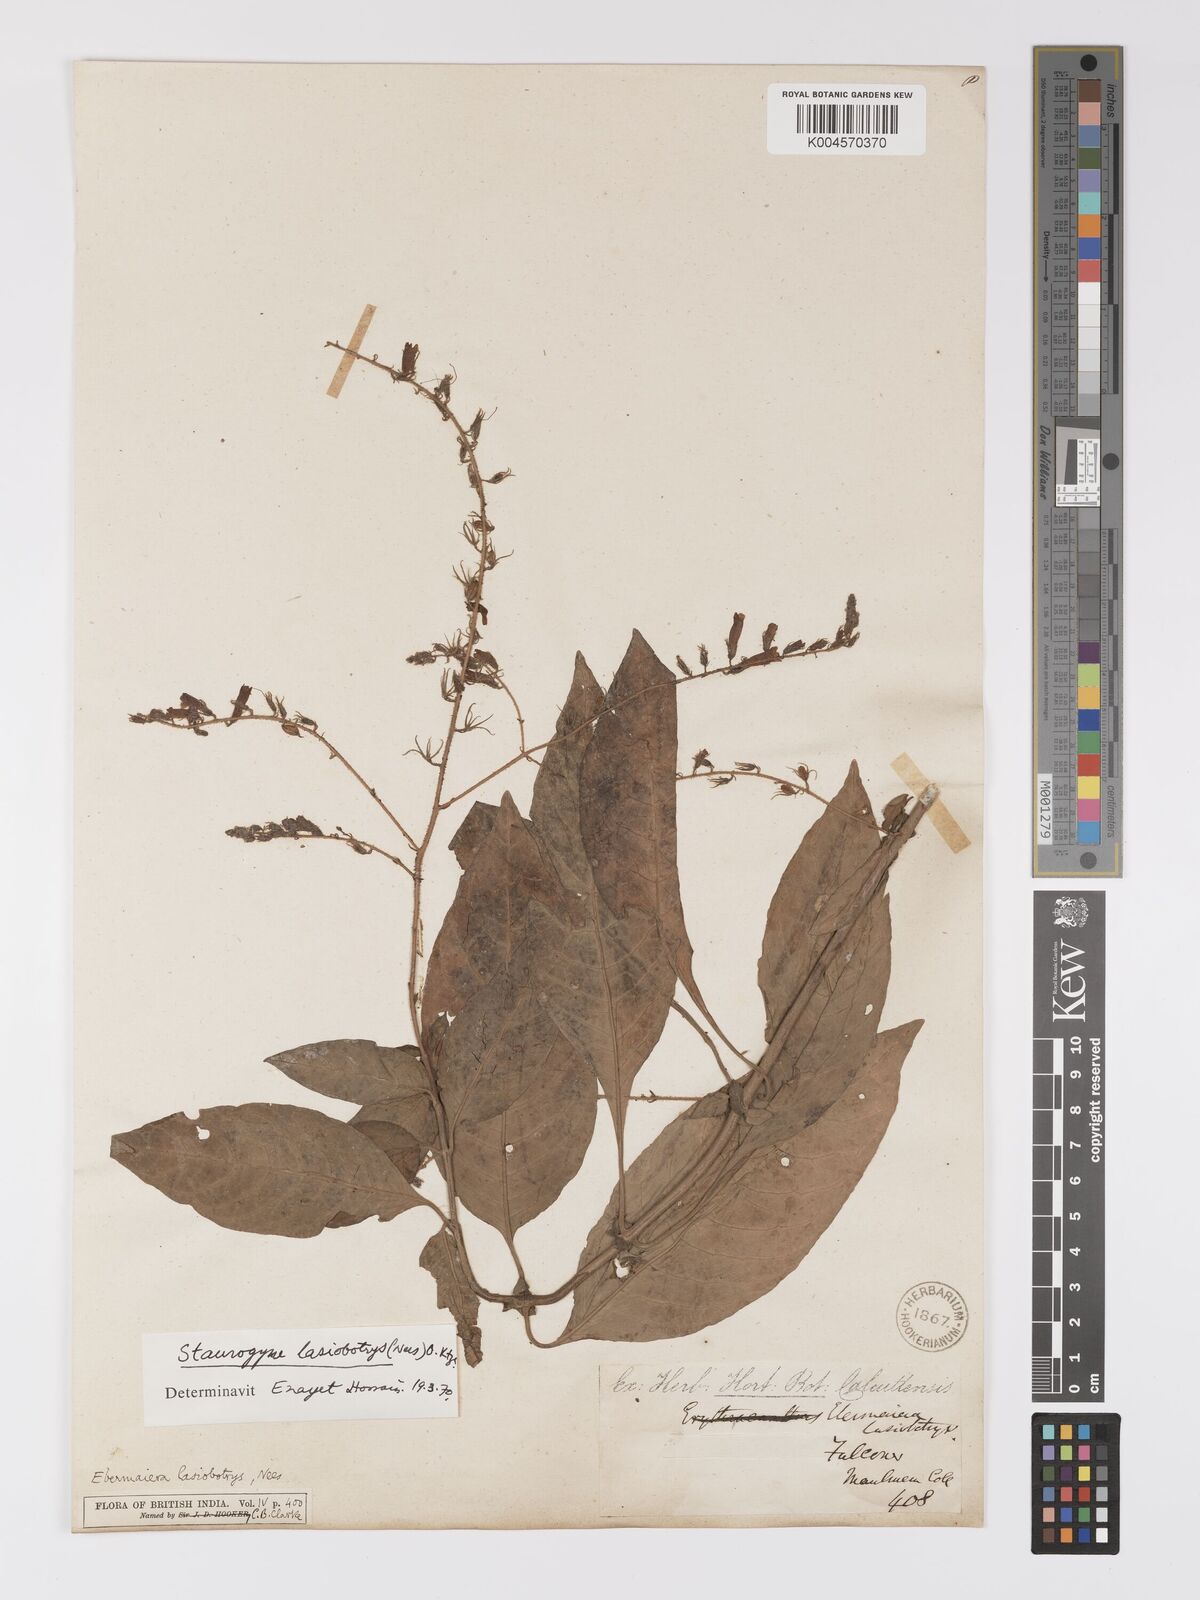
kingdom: Plantae
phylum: Tracheophyta
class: Magnoliopsida
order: Lamiales
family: Acanthaceae
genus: Staurogyne
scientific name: Staurogyne lasiobotrys
